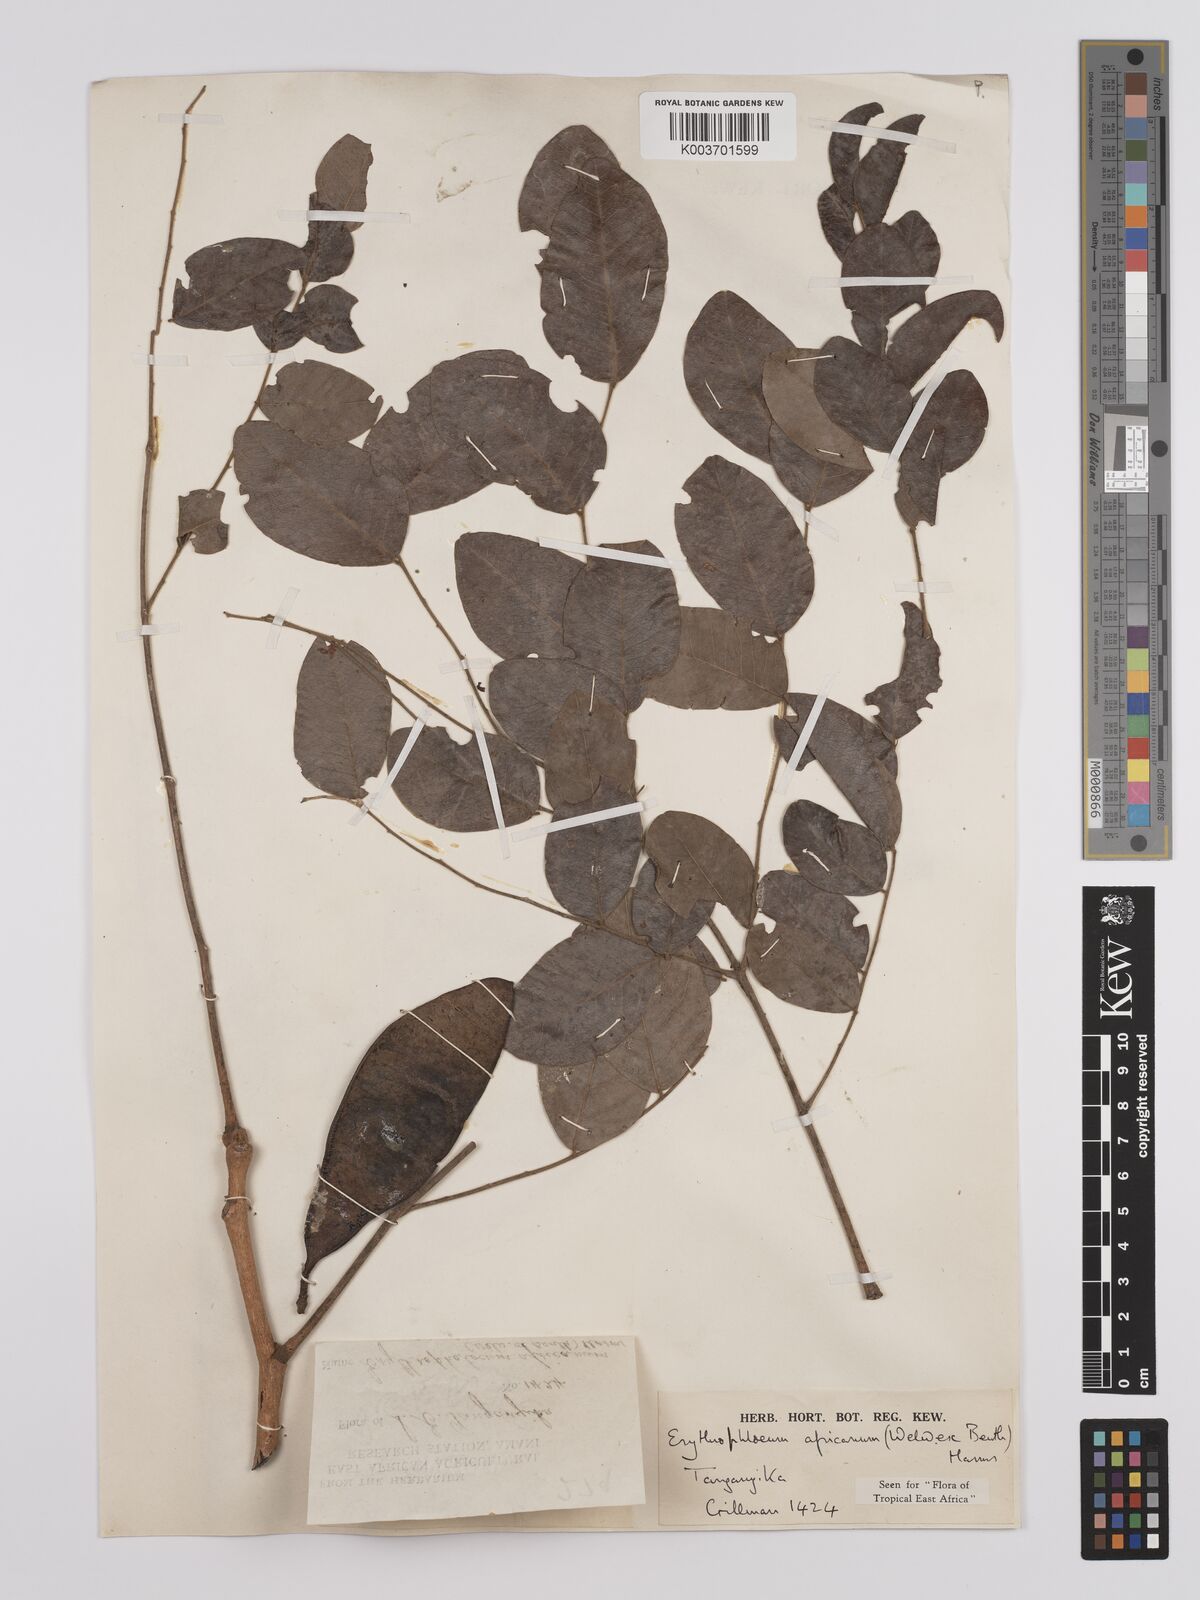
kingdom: Plantae
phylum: Tracheophyta
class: Magnoliopsida
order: Fabales
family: Fabaceae
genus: Erythrophleum
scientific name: Erythrophleum africanum
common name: African blackwood
